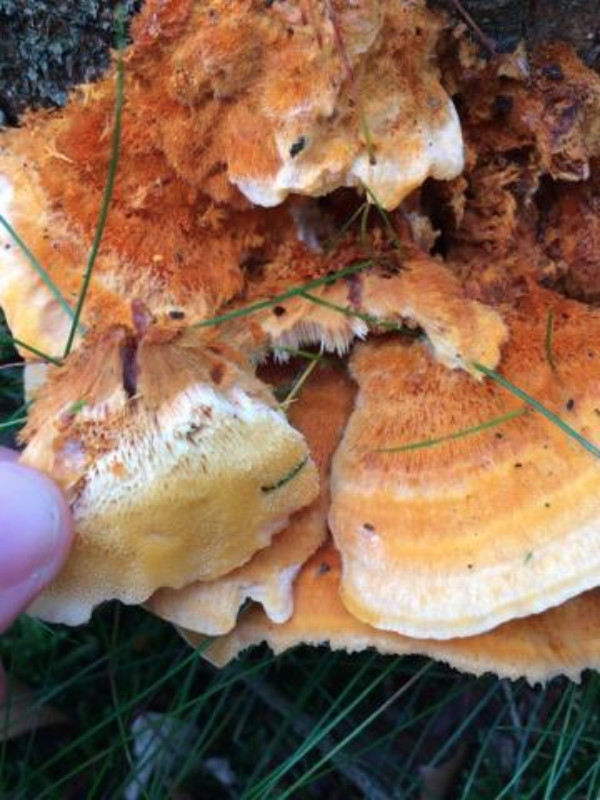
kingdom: Fungi
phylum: Basidiomycota
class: Agaricomycetes
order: Polyporales
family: Pycnoporellaceae
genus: Pycnoporellus
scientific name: Pycnoporellus fulgens
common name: flammeporesvamp
